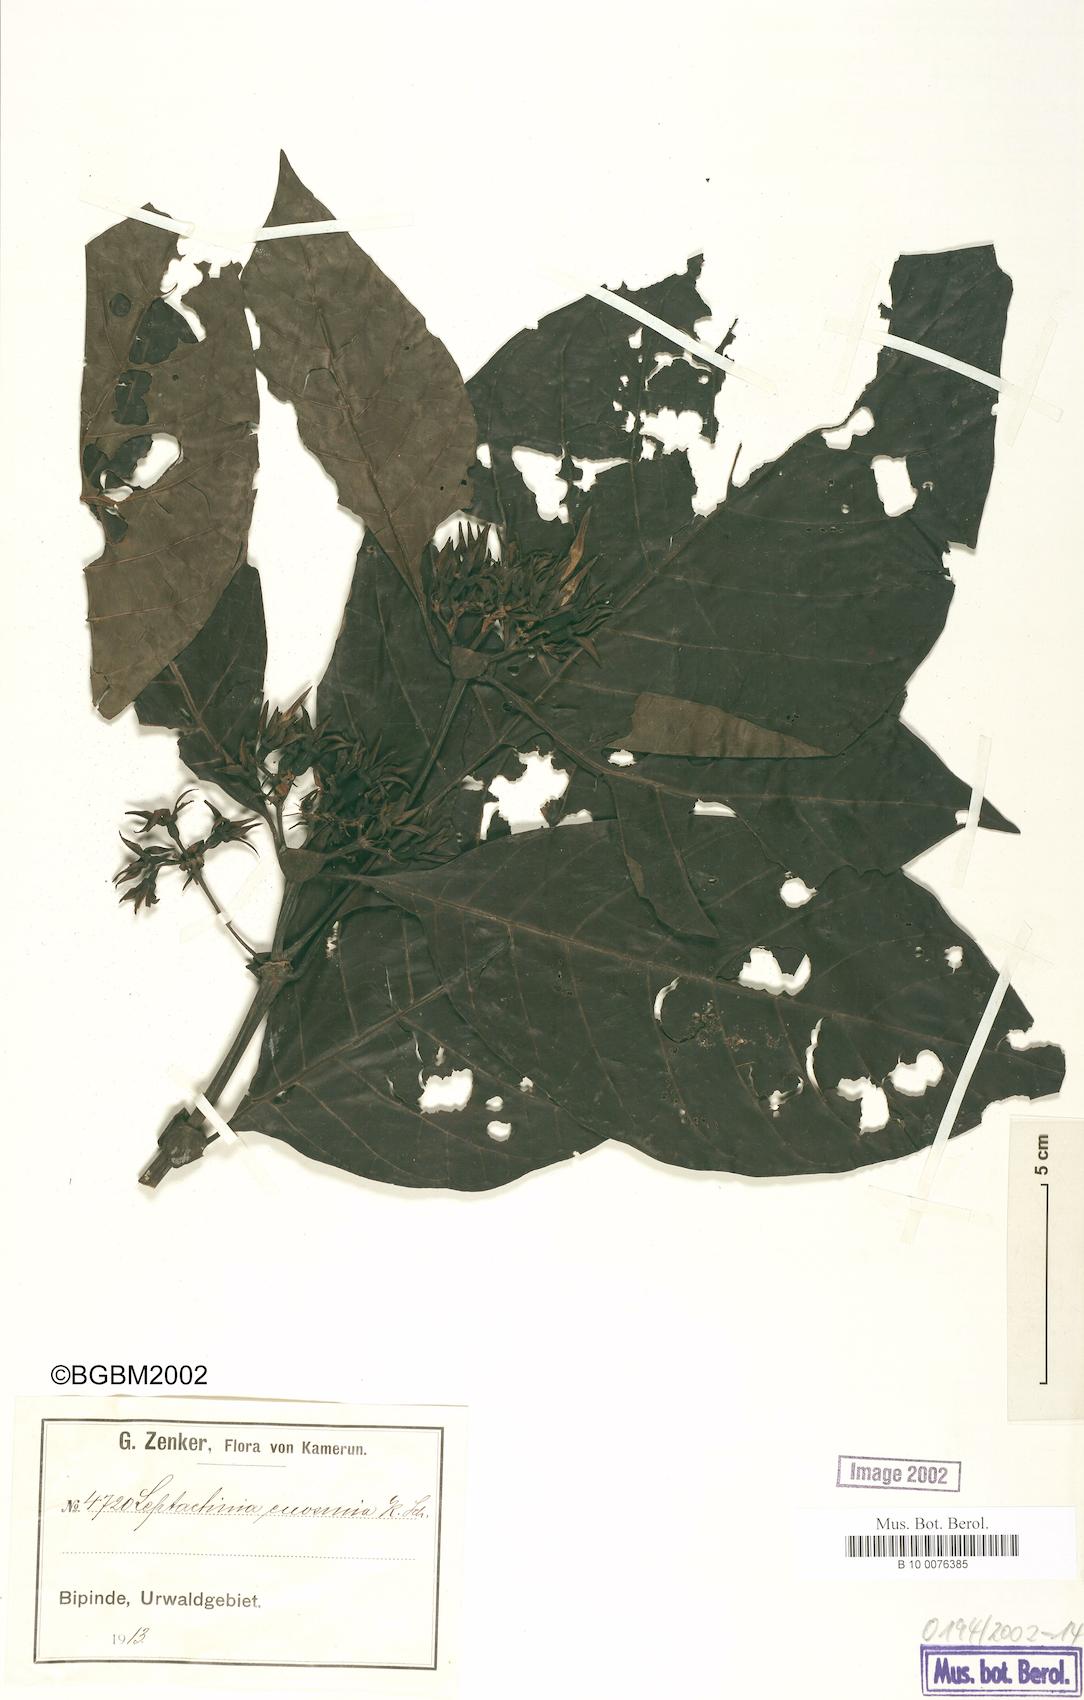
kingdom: Plantae
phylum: Tracheophyta
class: Magnoliopsida
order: Gentianales
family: Rubiaceae
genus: Leptactina
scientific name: Leptactina involucrata
